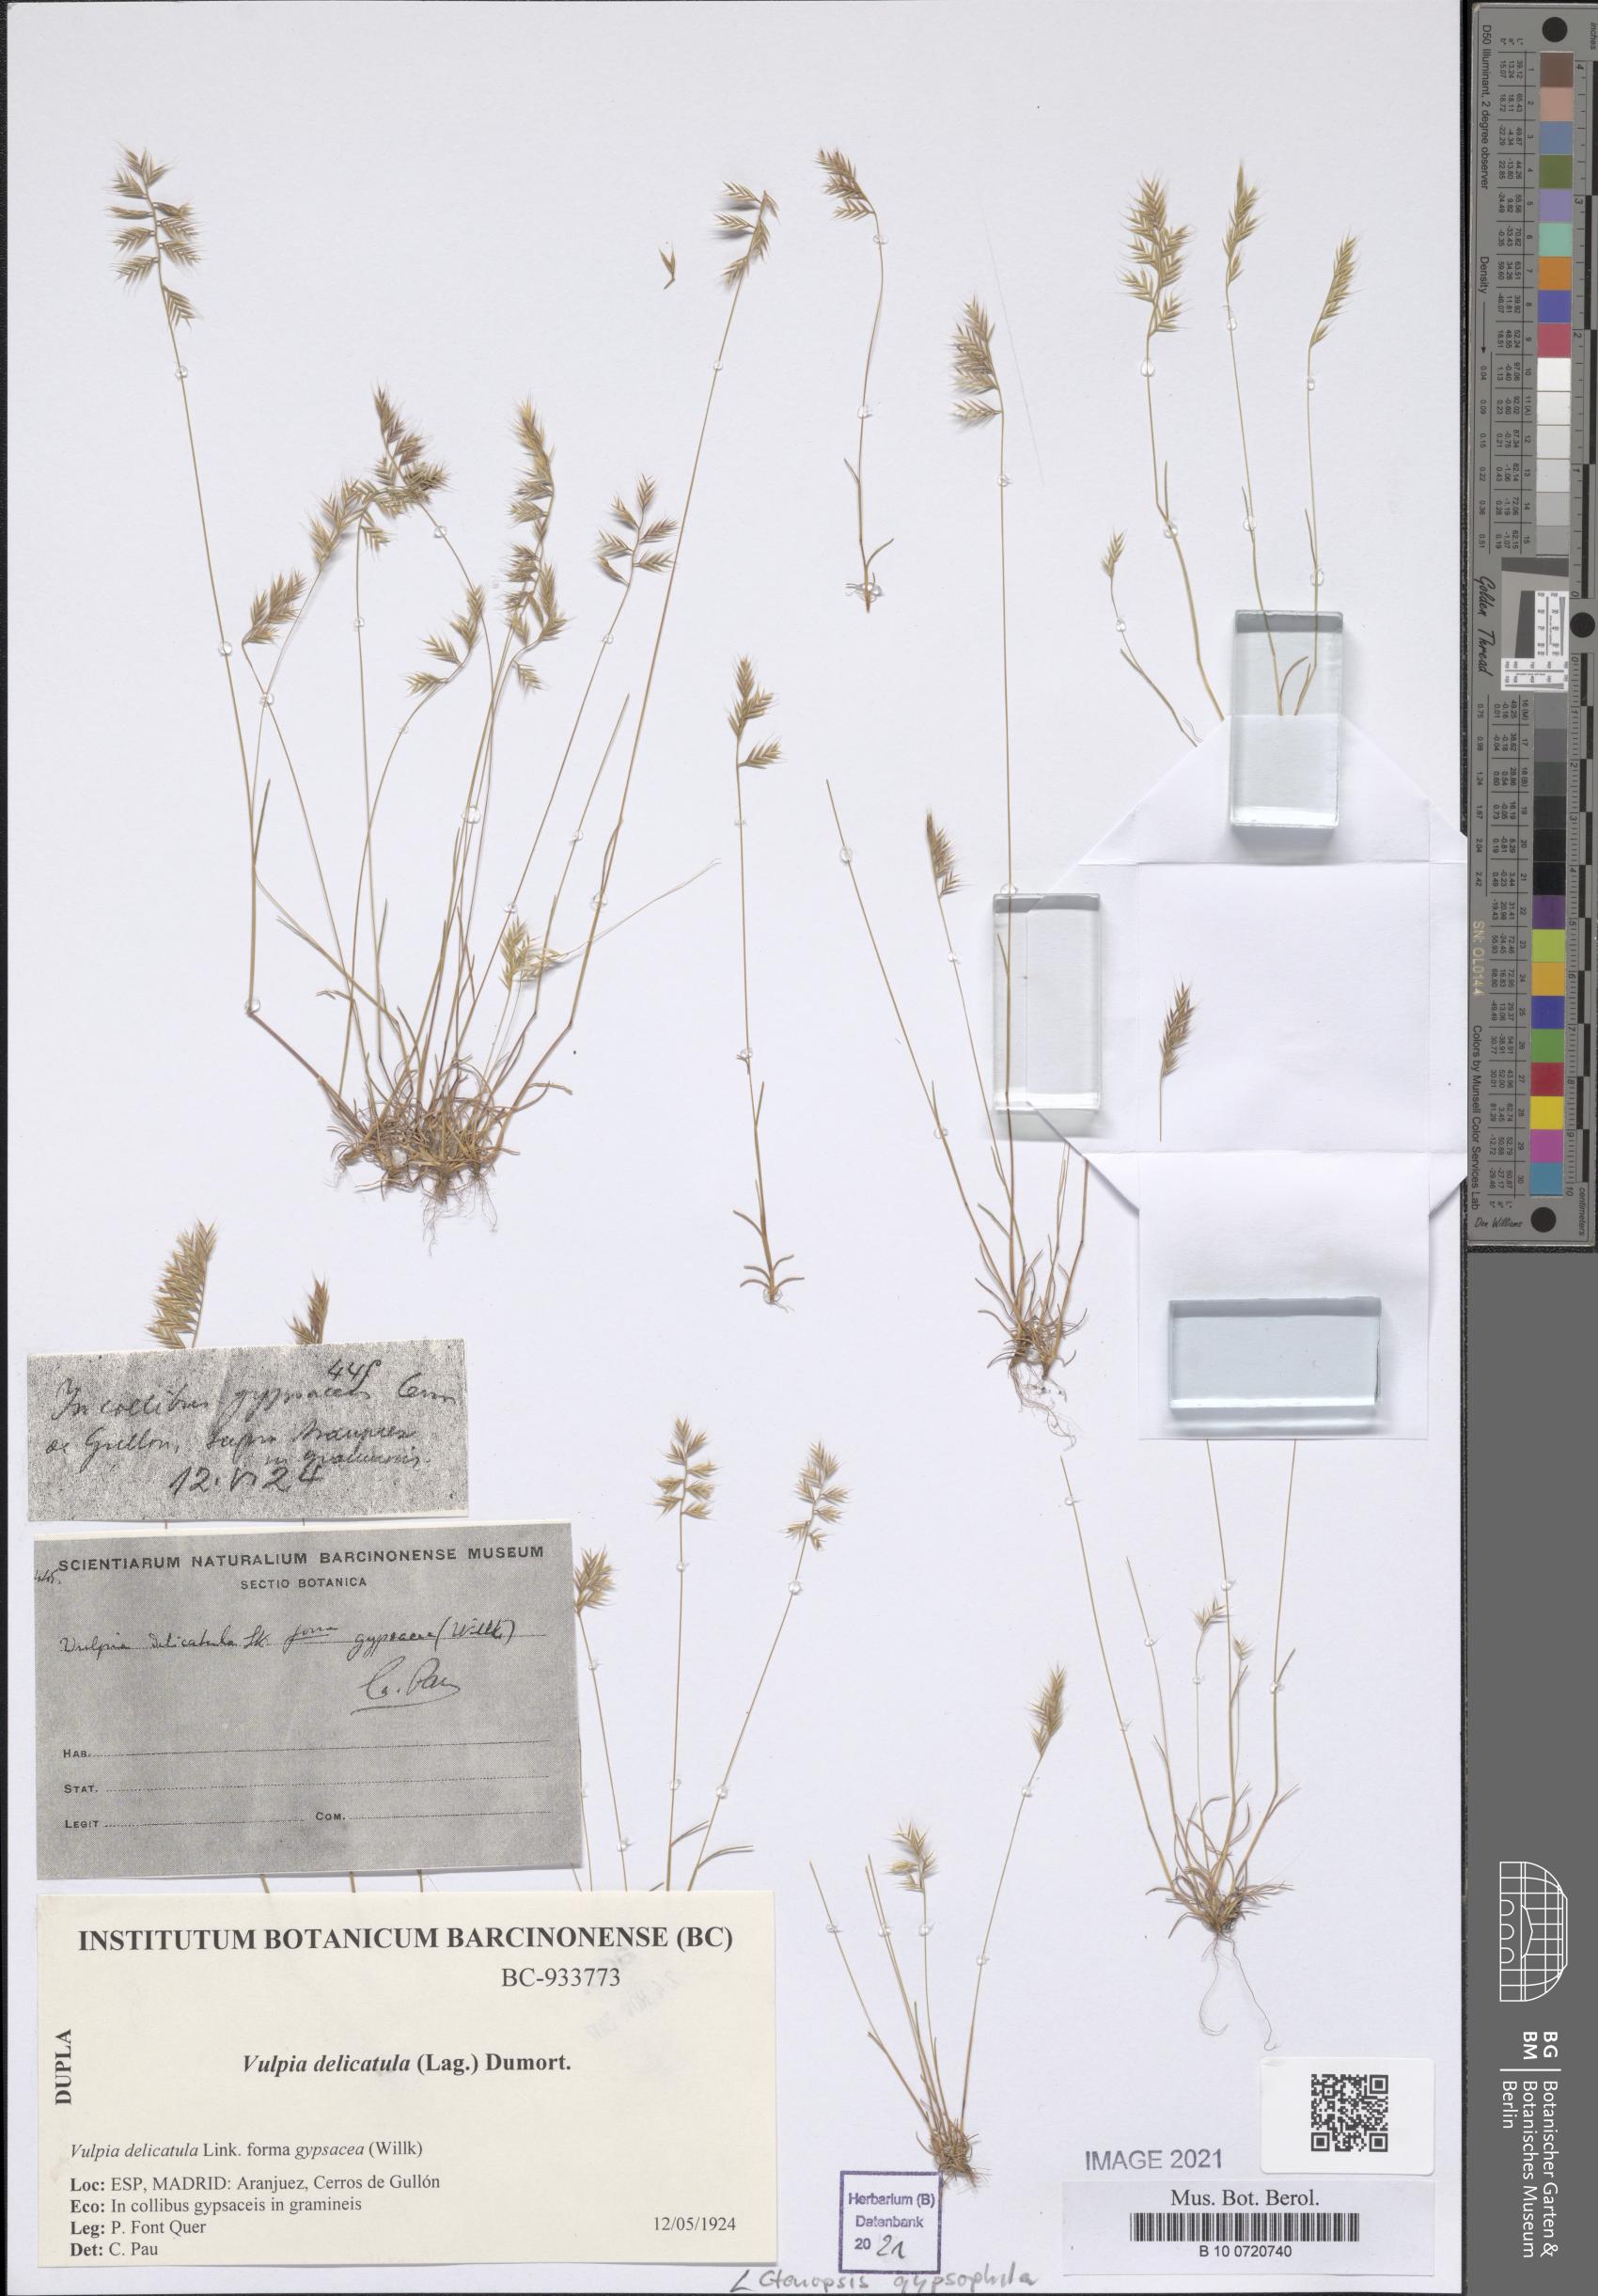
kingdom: Plantae
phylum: Tracheophyta
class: Liliopsida
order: Poales
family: Poaceae
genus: Festuca
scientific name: Festuca gypsophila
